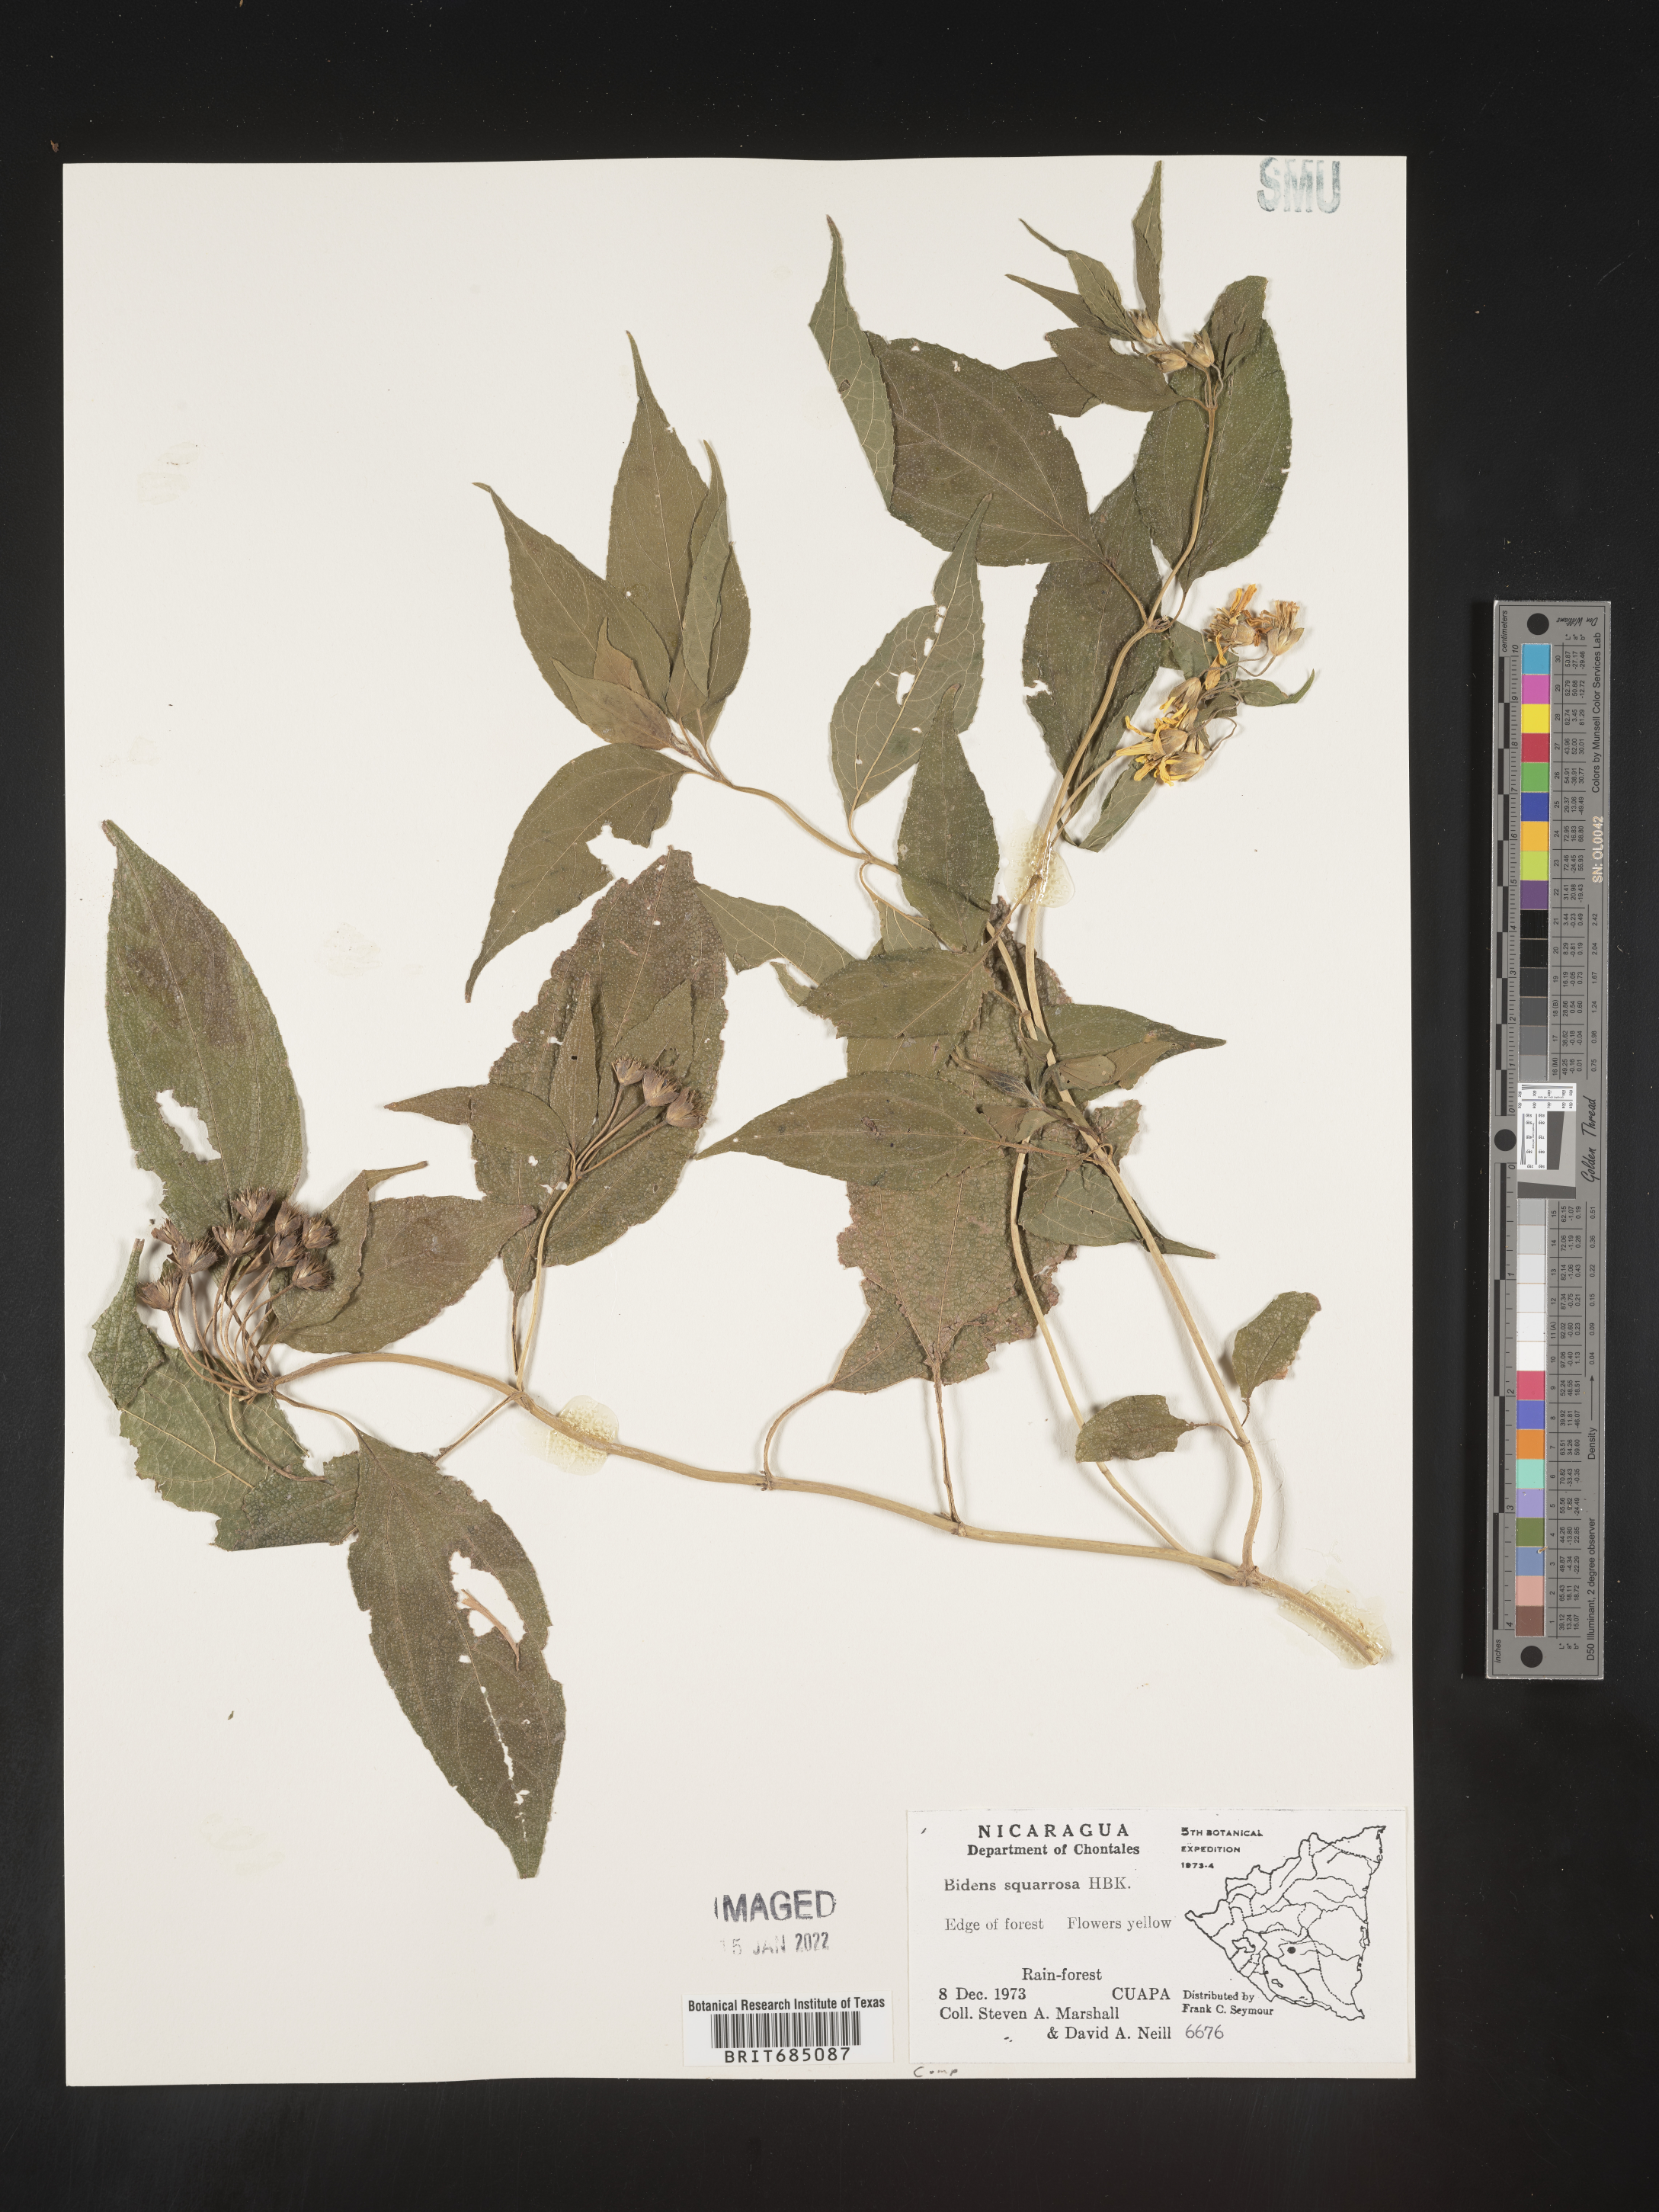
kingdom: Plantae
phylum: Tracheophyta
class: Magnoliopsida
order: Asterales
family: Asteraceae
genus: Bidens
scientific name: Bidens rubicundula
